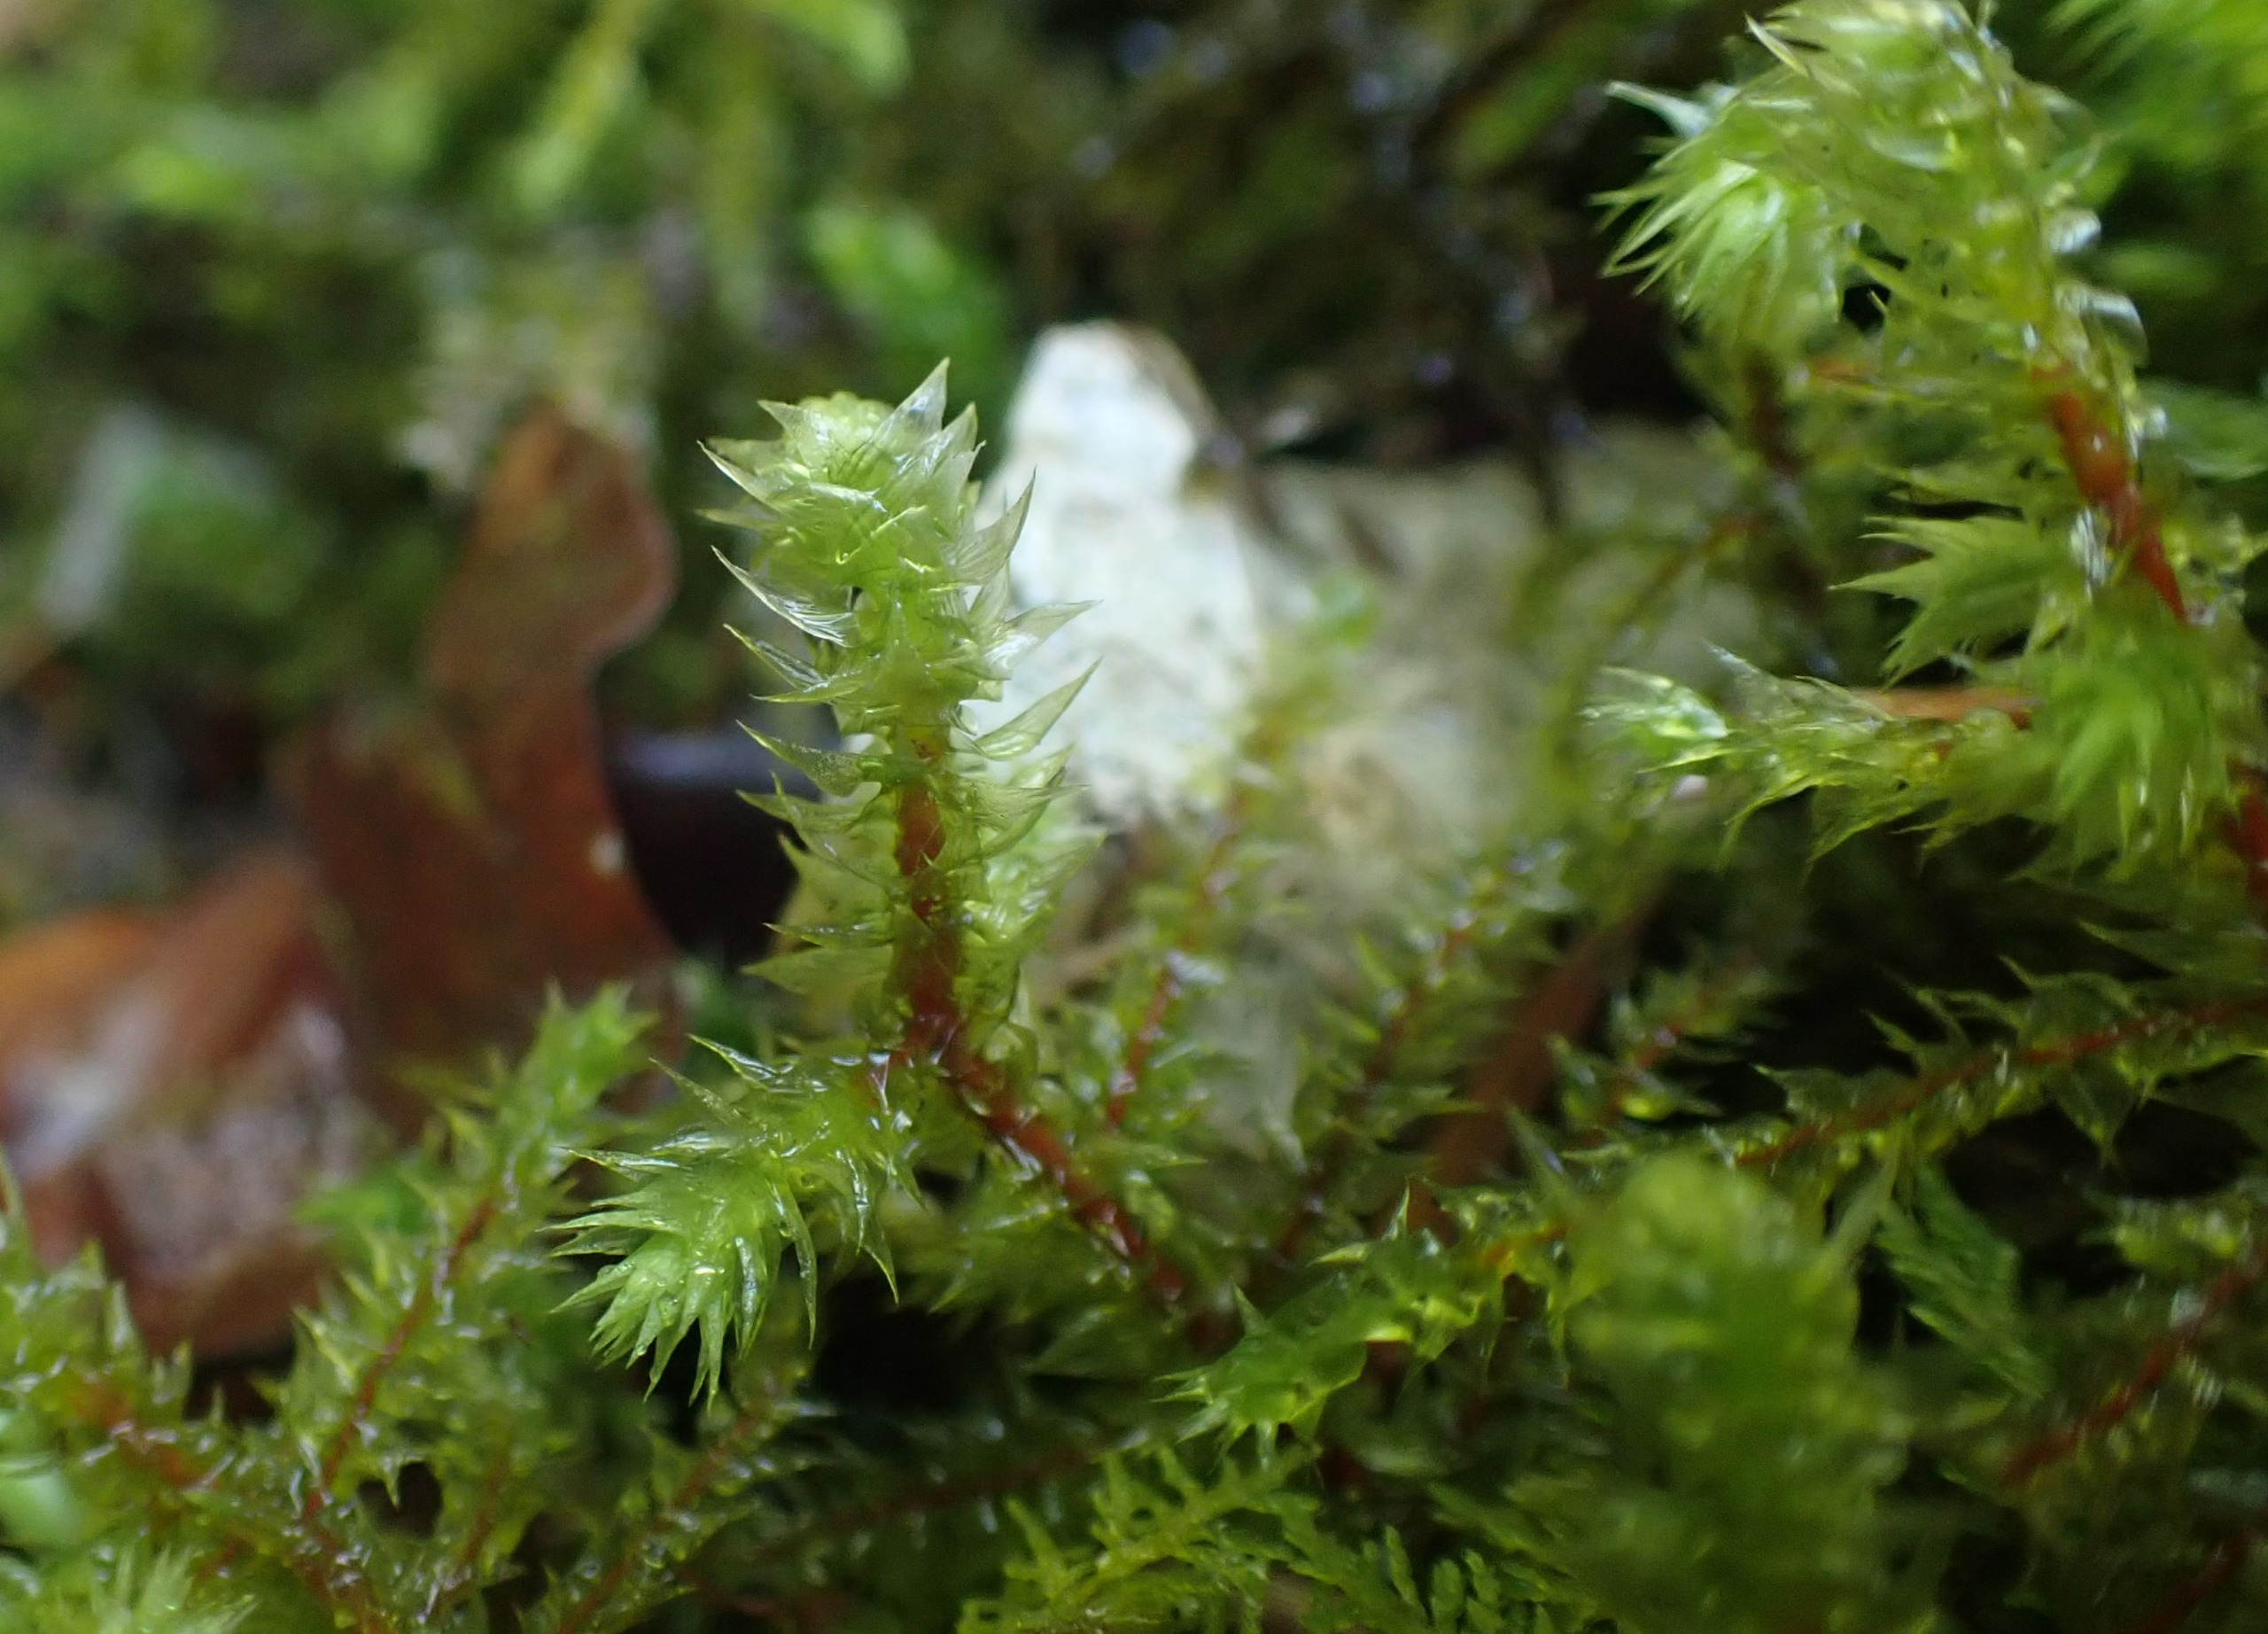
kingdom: Plantae
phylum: Bryophyta
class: Bryopsida
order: Hypnales
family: Hylocomiaceae
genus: Hylocomiadelphus
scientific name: Hylocomiadelphus triquetrus
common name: Stor kransemos
